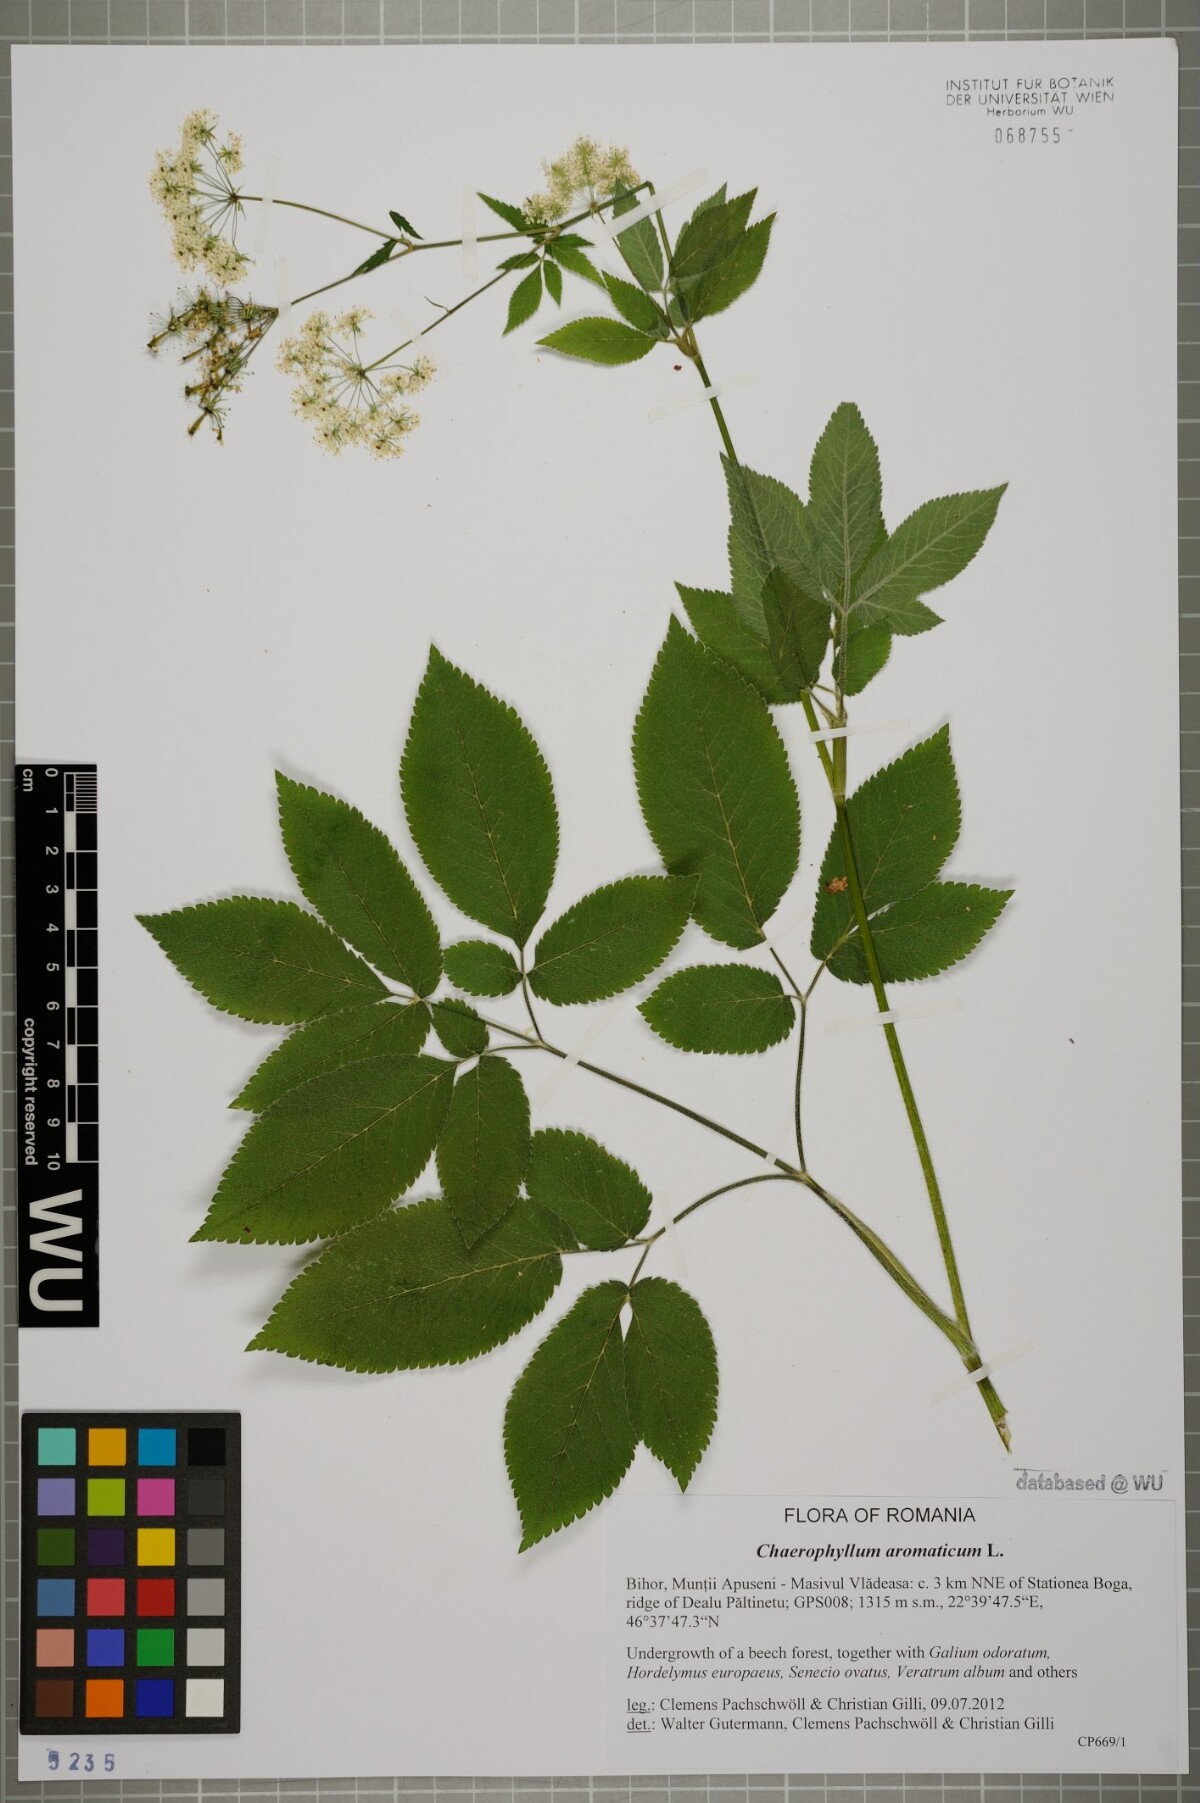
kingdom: Plantae
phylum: Tracheophyta
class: Magnoliopsida
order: Apiales
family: Apiaceae
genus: Chaerophyllum
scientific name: Chaerophyllum aromaticum
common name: Broadleaf chervil
